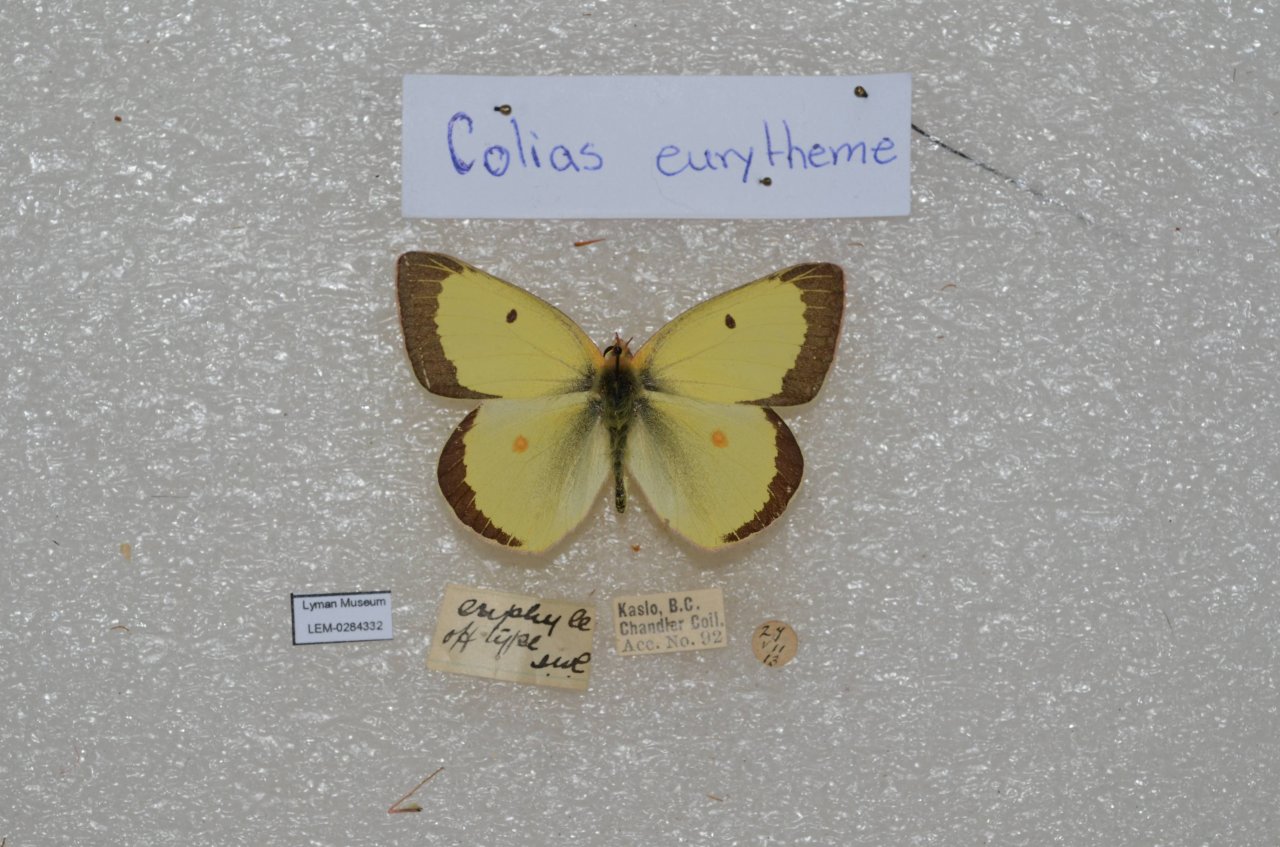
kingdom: Animalia
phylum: Arthropoda
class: Insecta
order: Lepidoptera
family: Pieridae
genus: Colias
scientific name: Colias eurytheme
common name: Orange Sulphur
